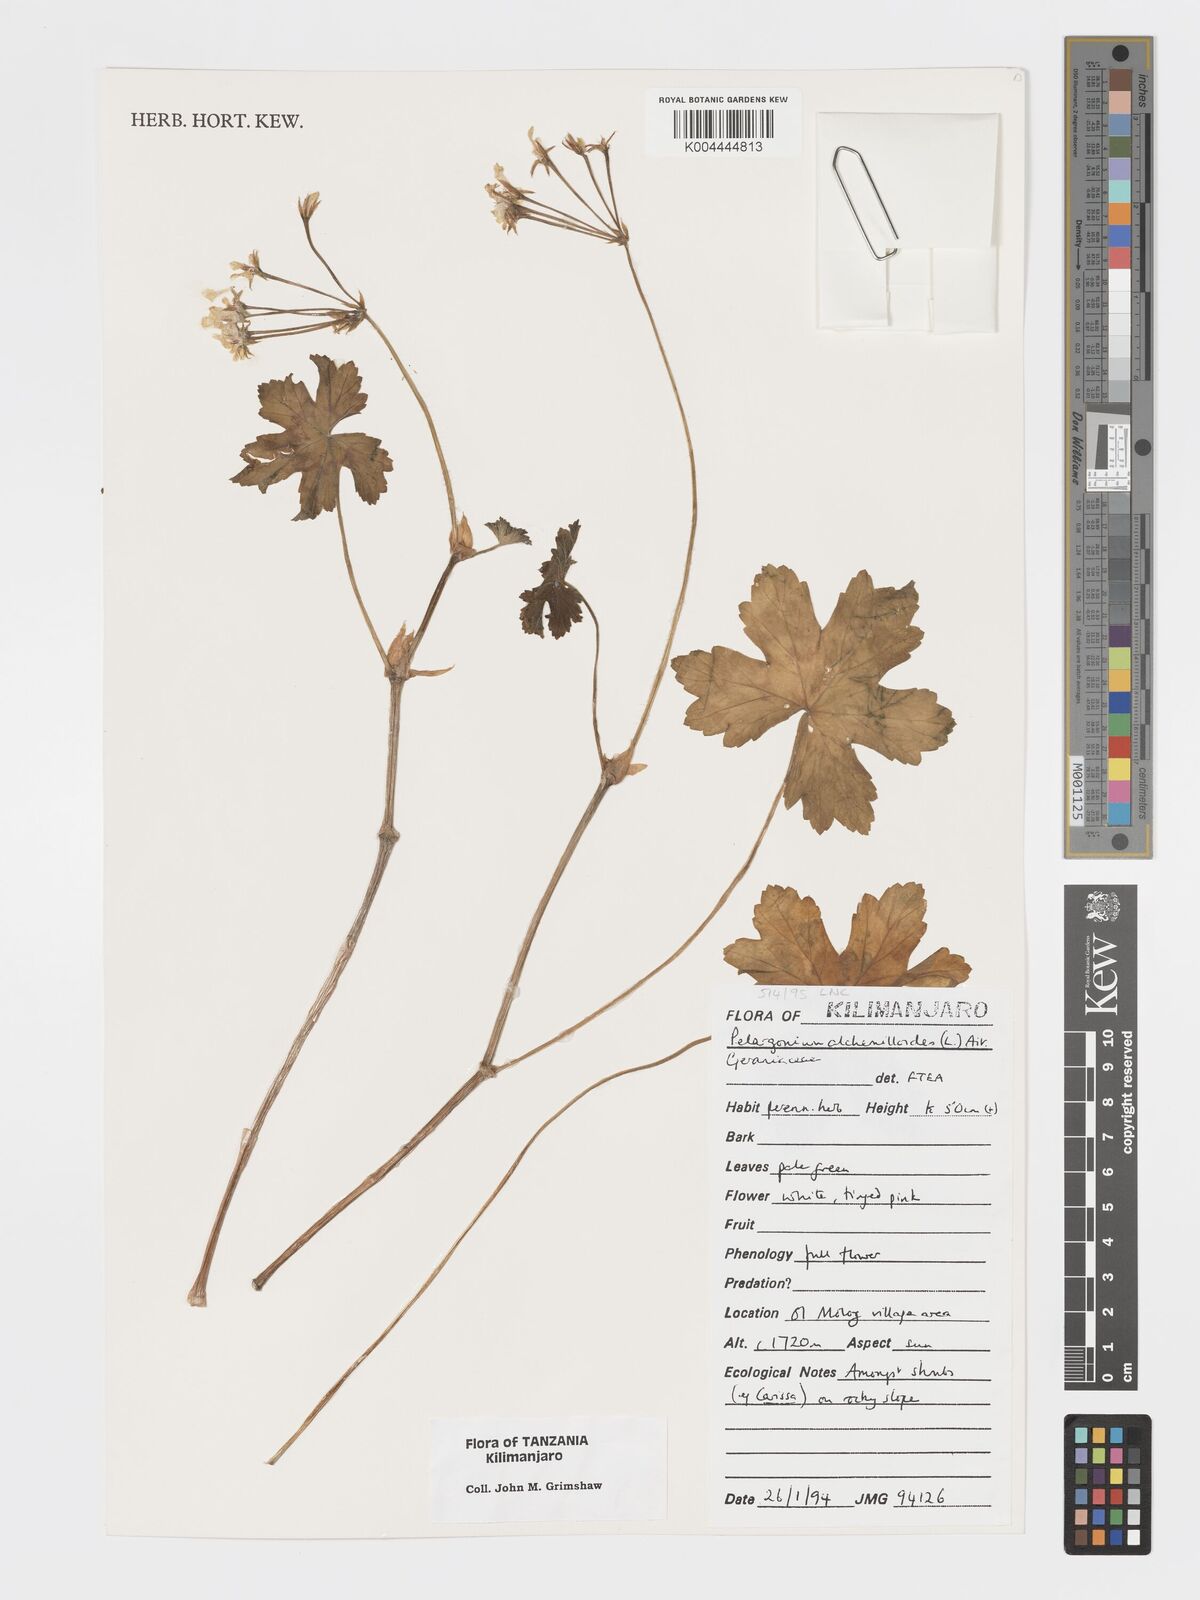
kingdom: Plantae
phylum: Tracheophyta
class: Magnoliopsida
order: Geraniales
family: Geraniaceae
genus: Pelargonium
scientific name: Pelargonium alchemilloides
